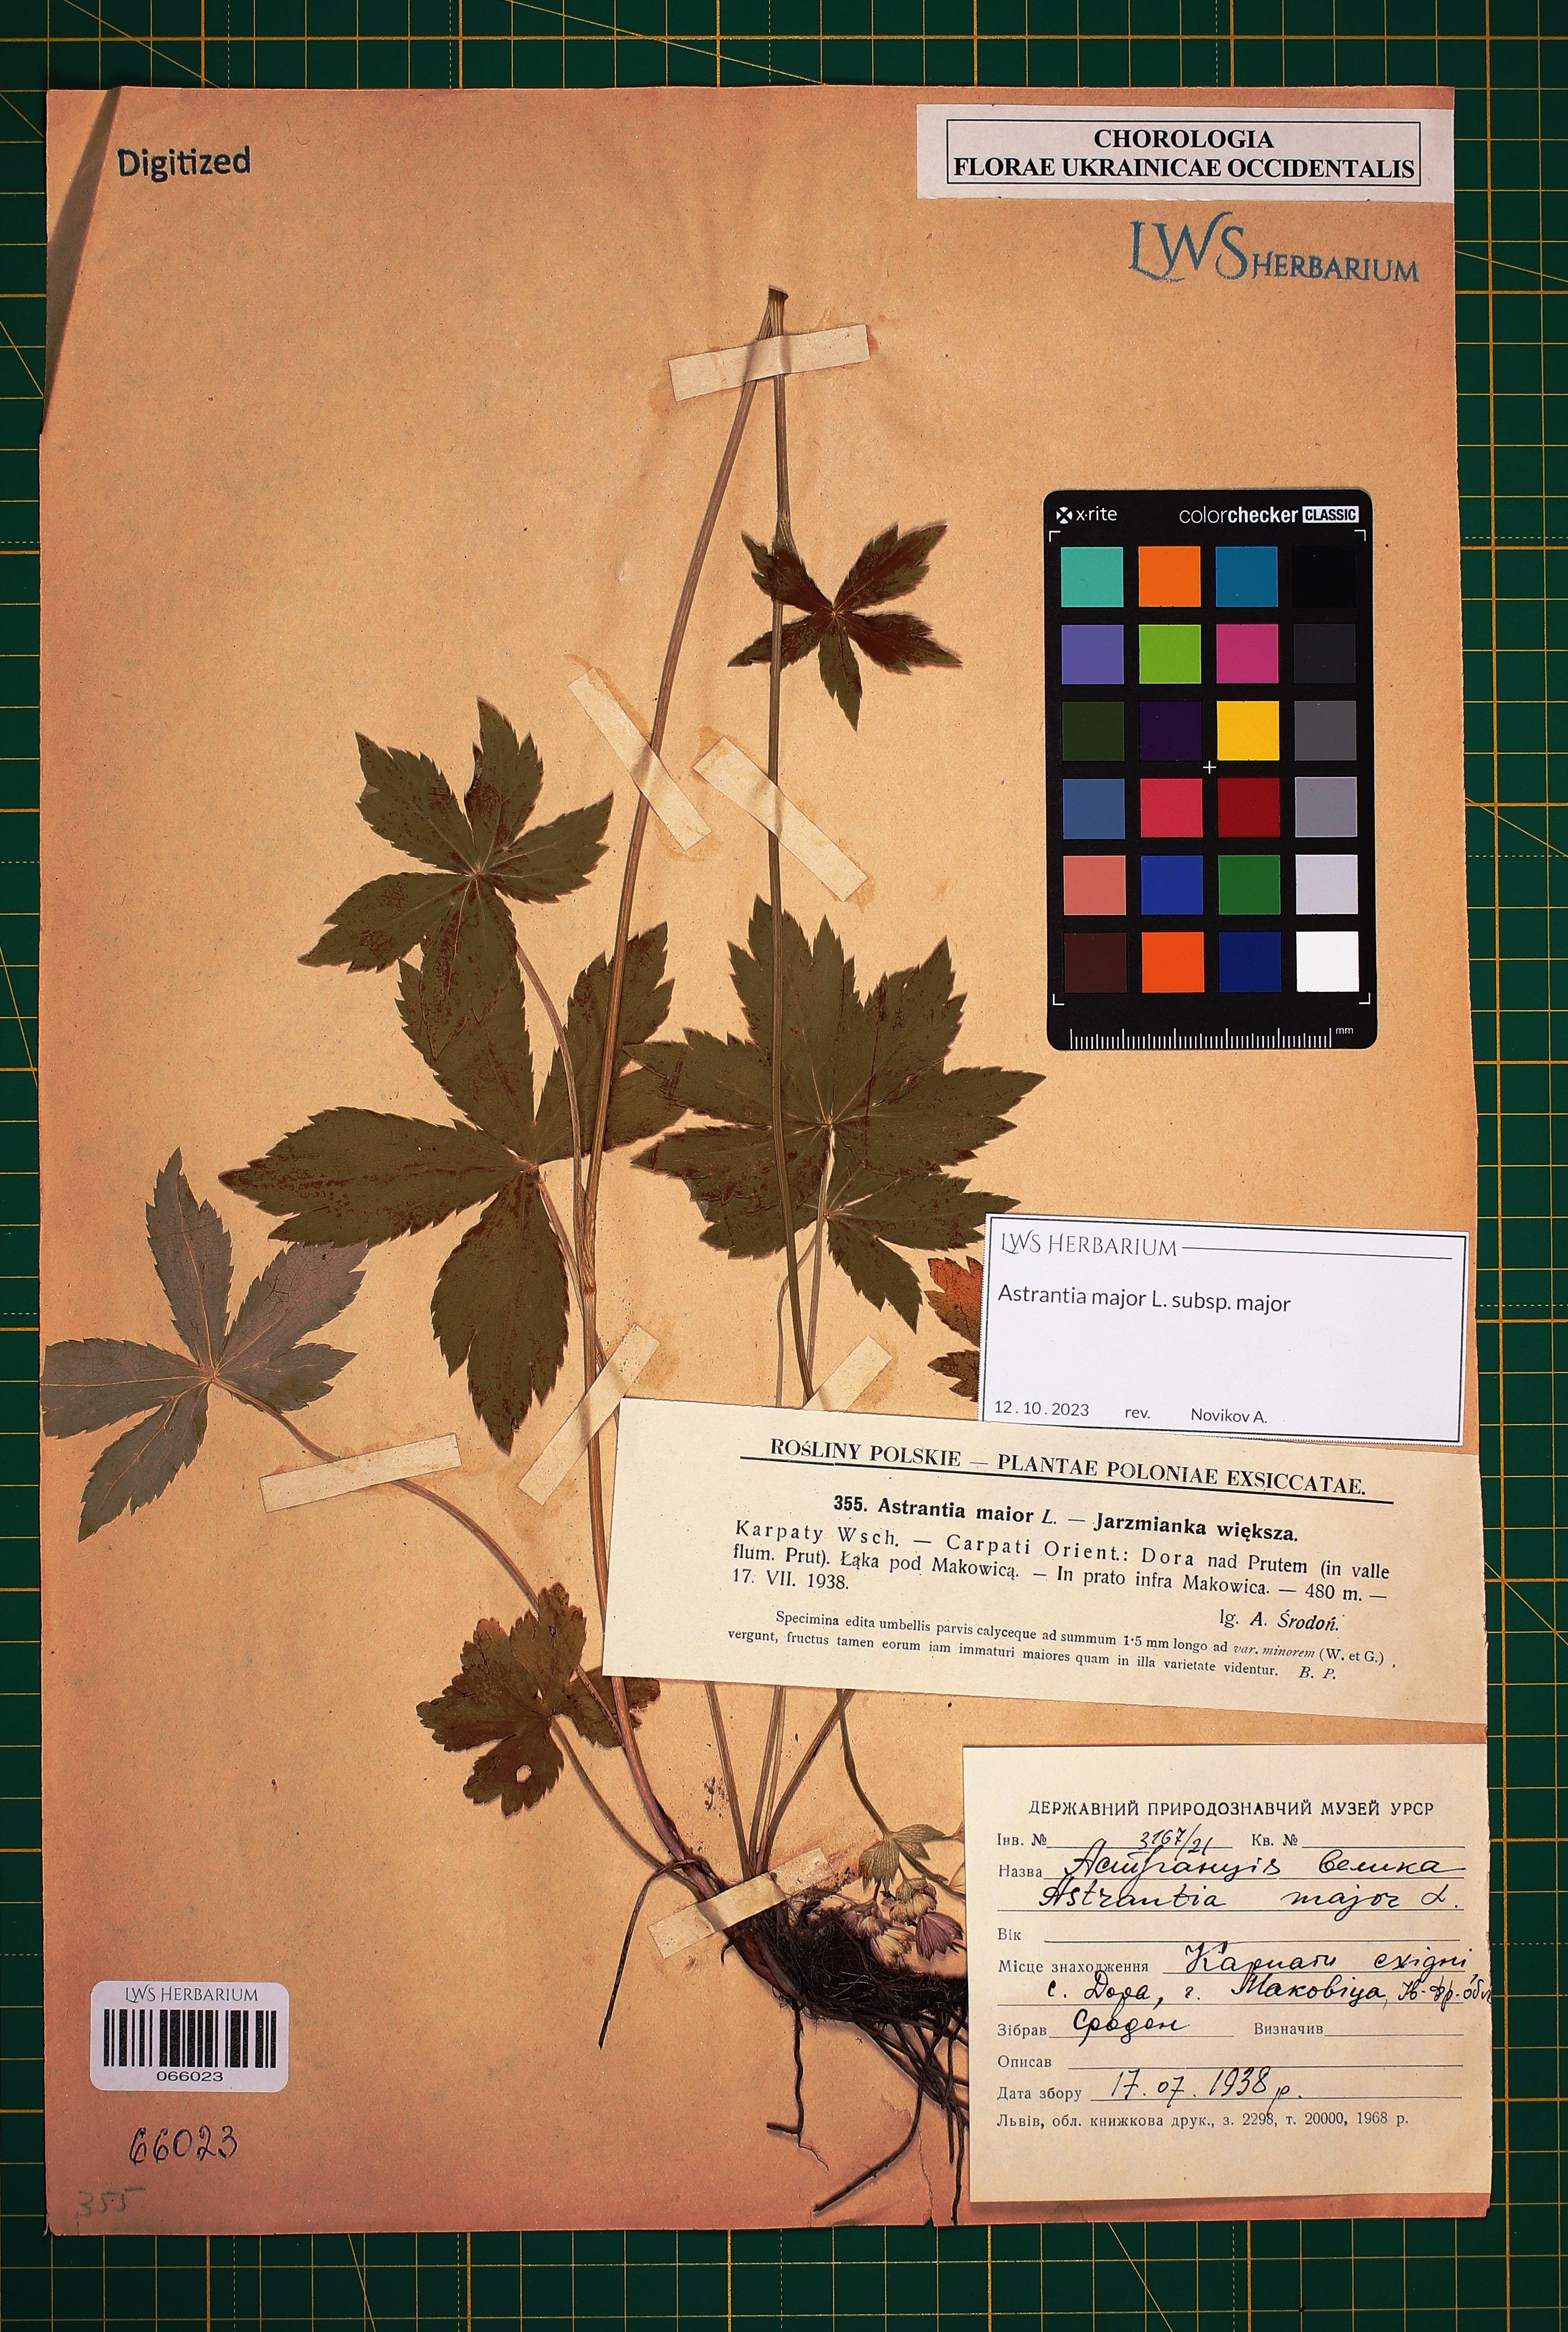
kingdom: Plantae
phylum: Tracheophyta
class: Magnoliopsida
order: Apiales
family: Apiaceae
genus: Astrantia
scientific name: Astrantia major
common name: Greater masterwort
